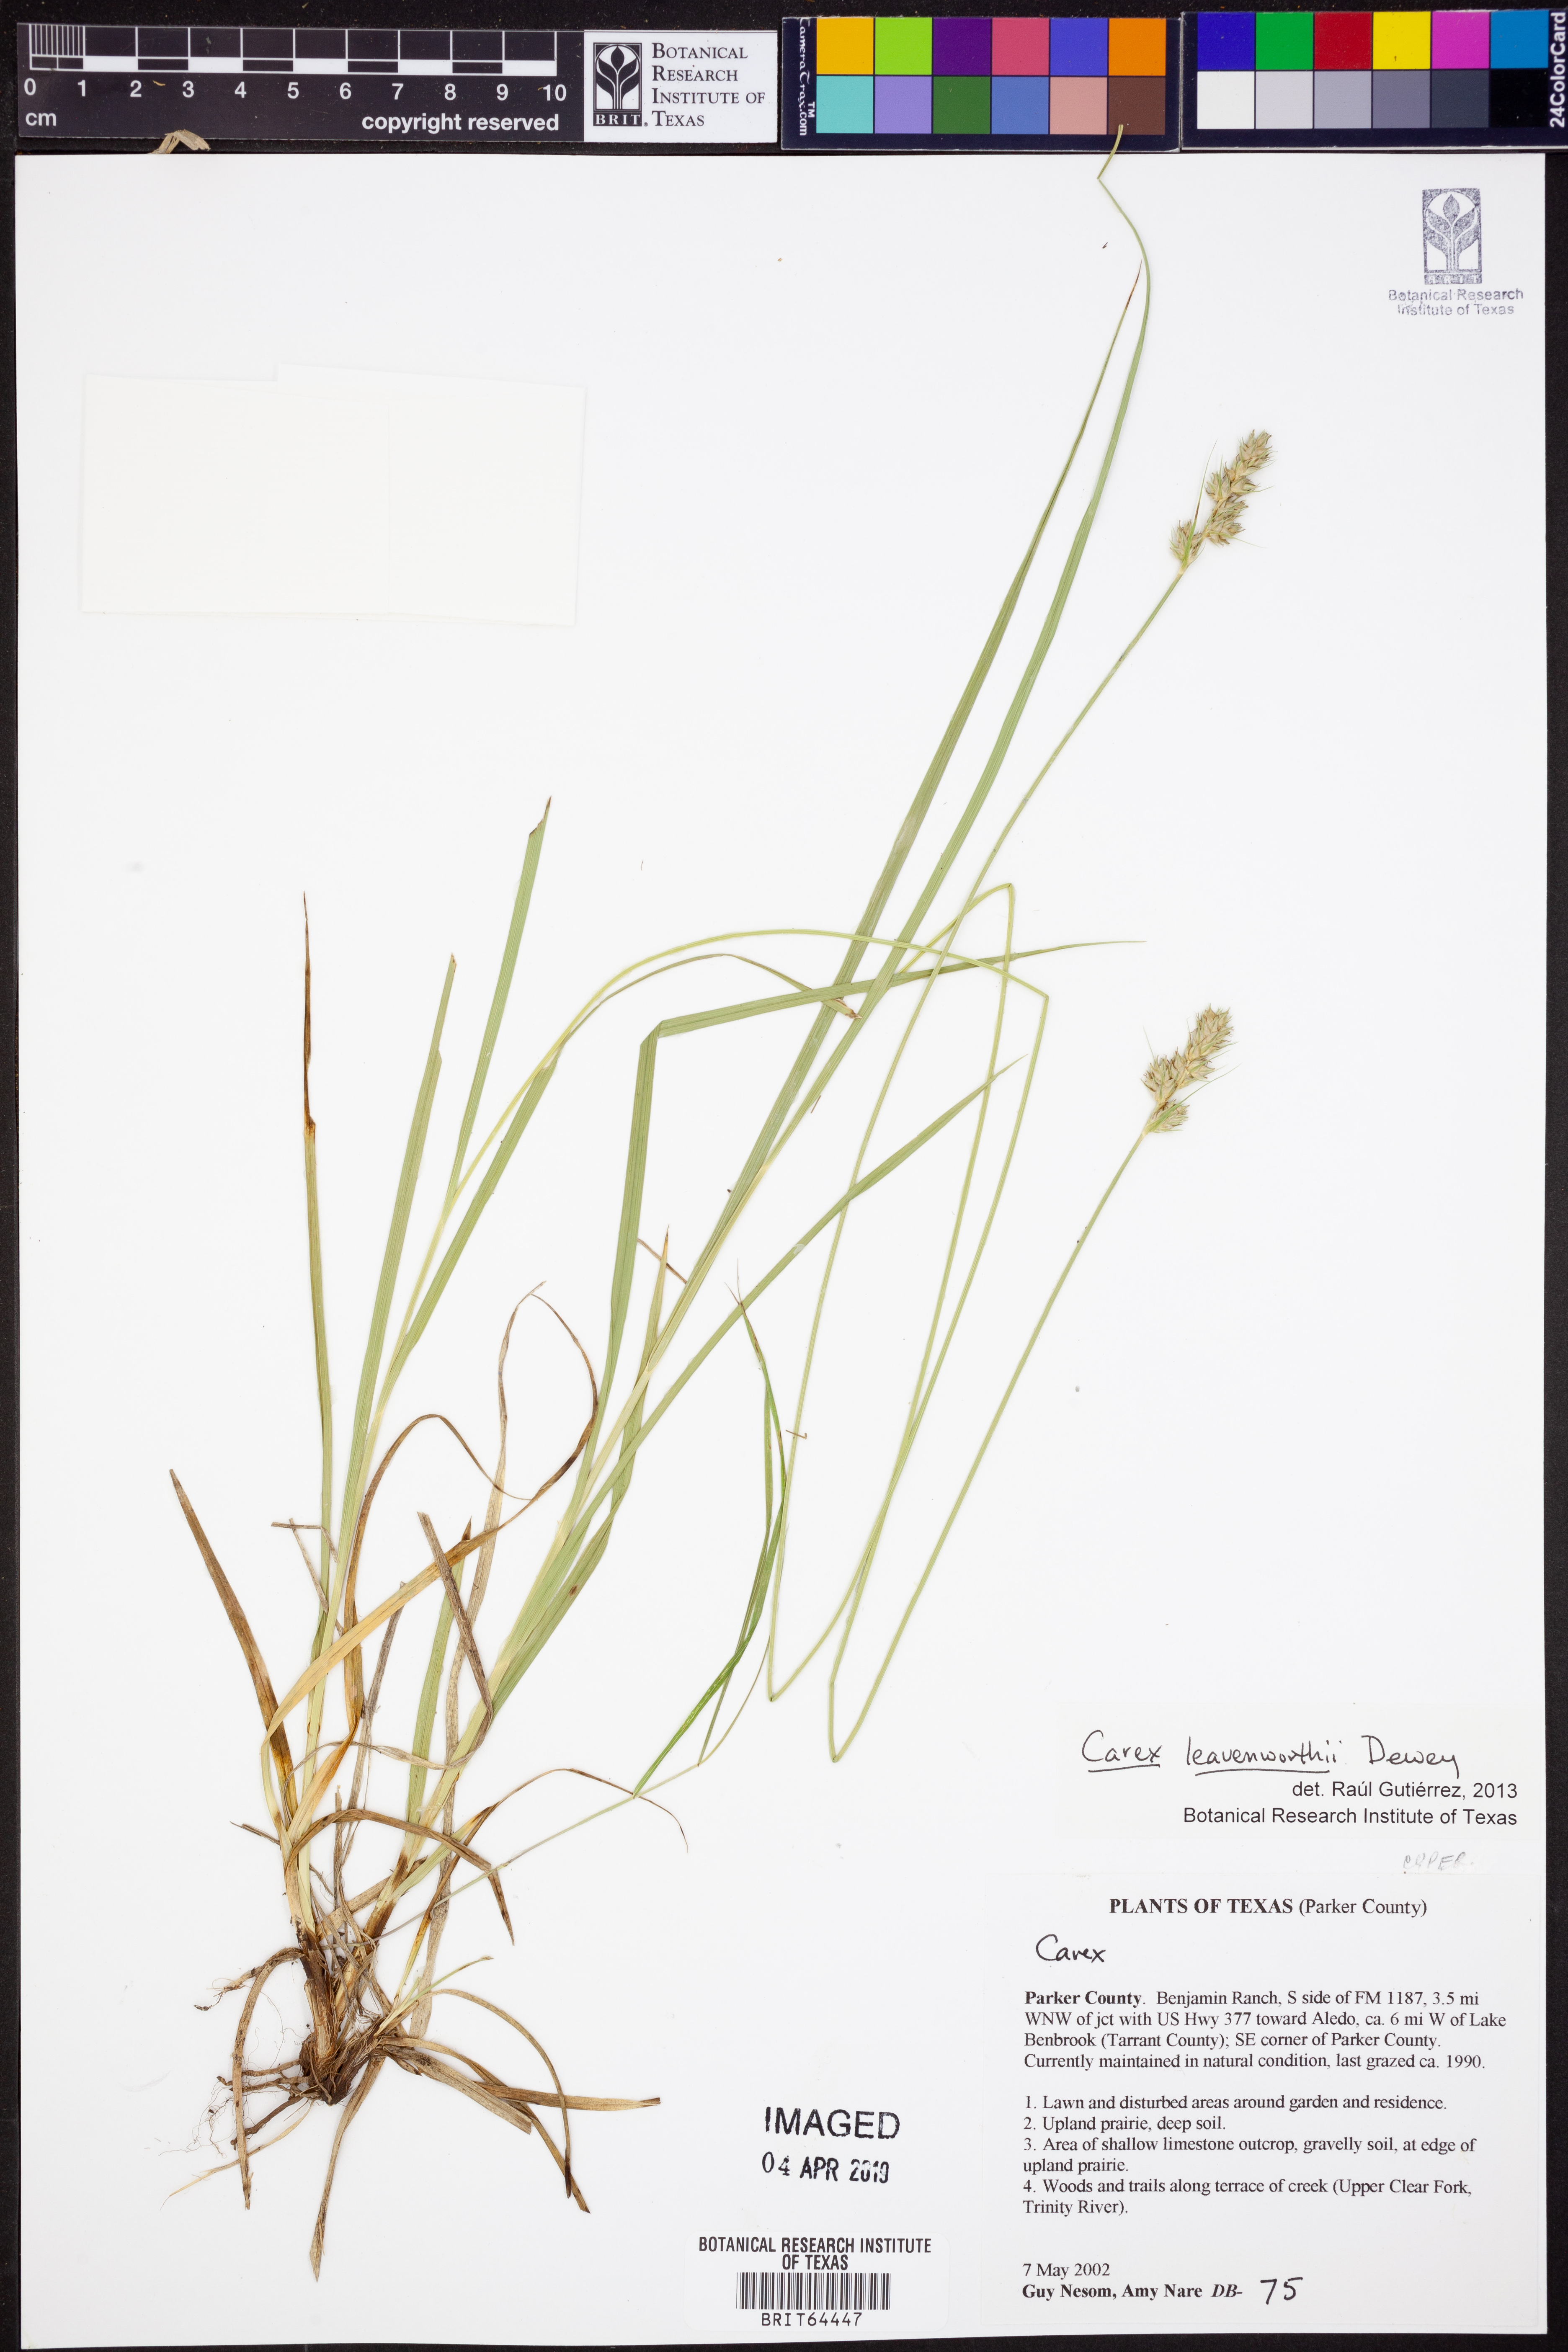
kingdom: Plantae
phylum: Tracheophyta
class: Liliopsida
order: Poales
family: Cyperaceae
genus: Carex
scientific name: Carex leavenworthii
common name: Leavenworth's bracted sedge
